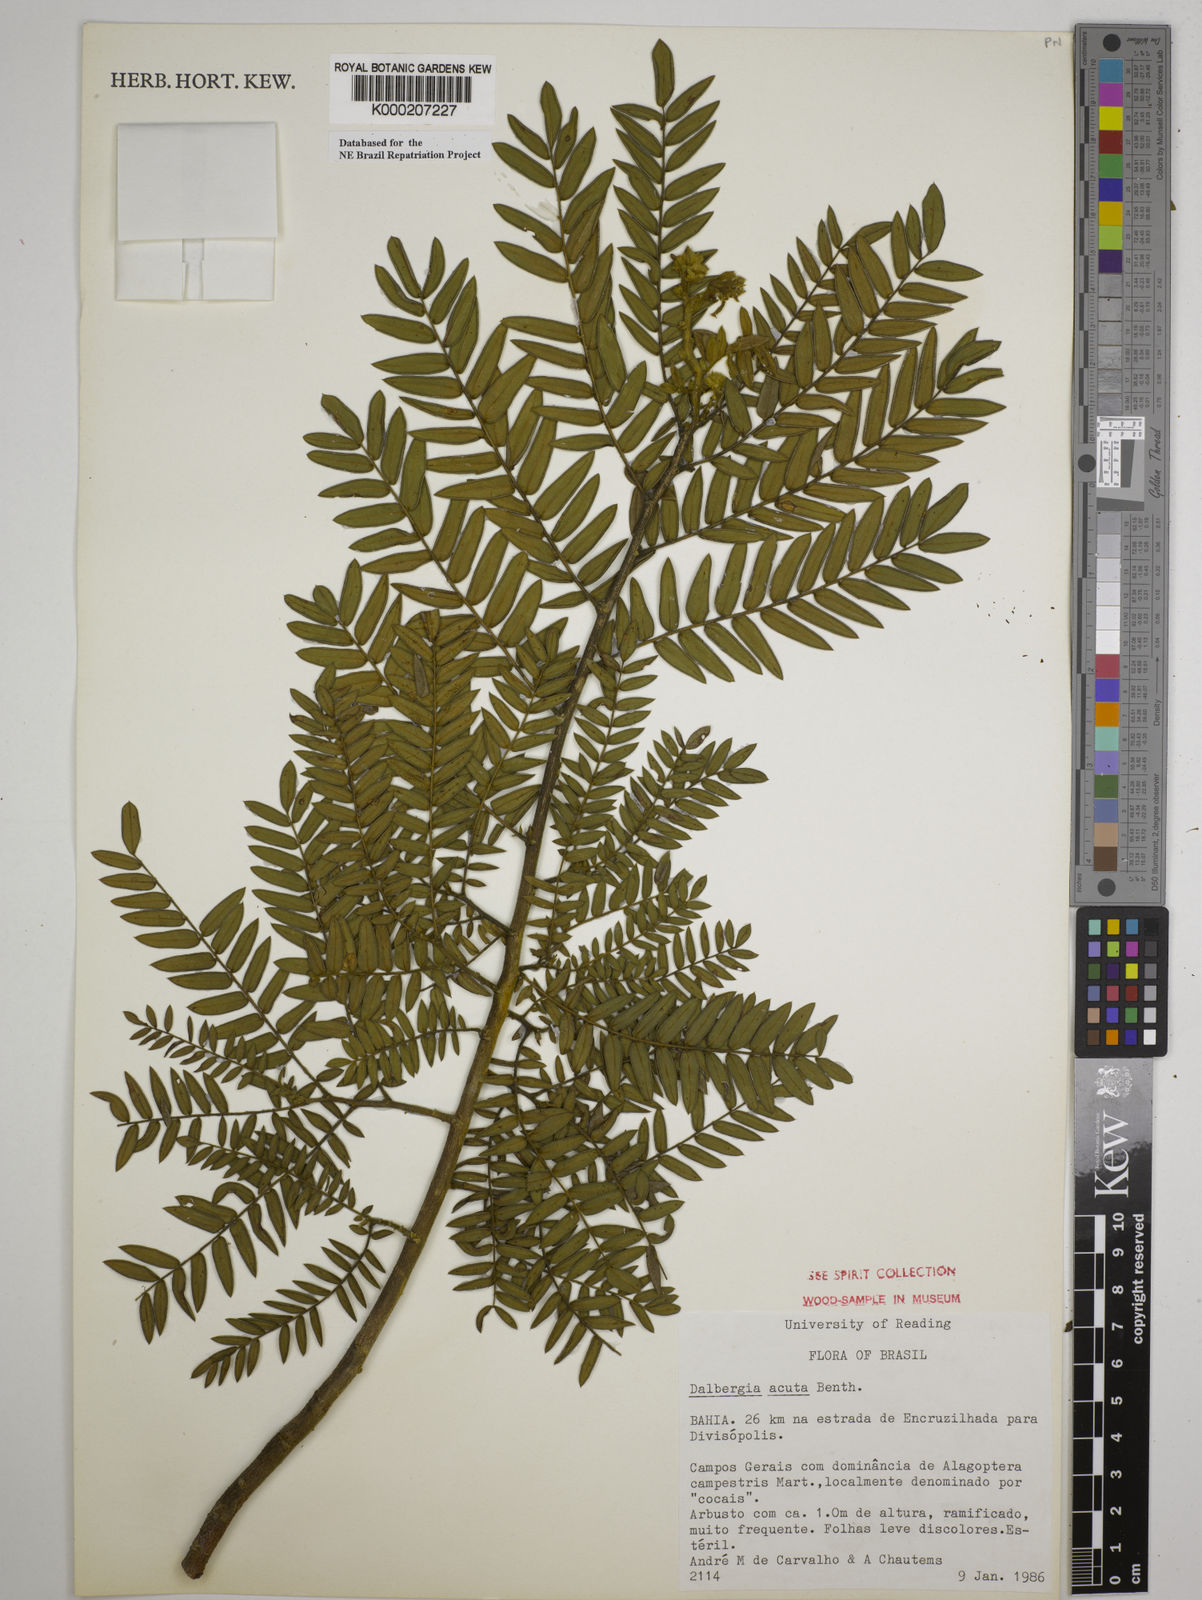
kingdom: Plantae
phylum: Tracheophyta
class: Magnoliopsida
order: Fabales
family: Fabaceae
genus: Dalbergia
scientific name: Dalbergia acuta
